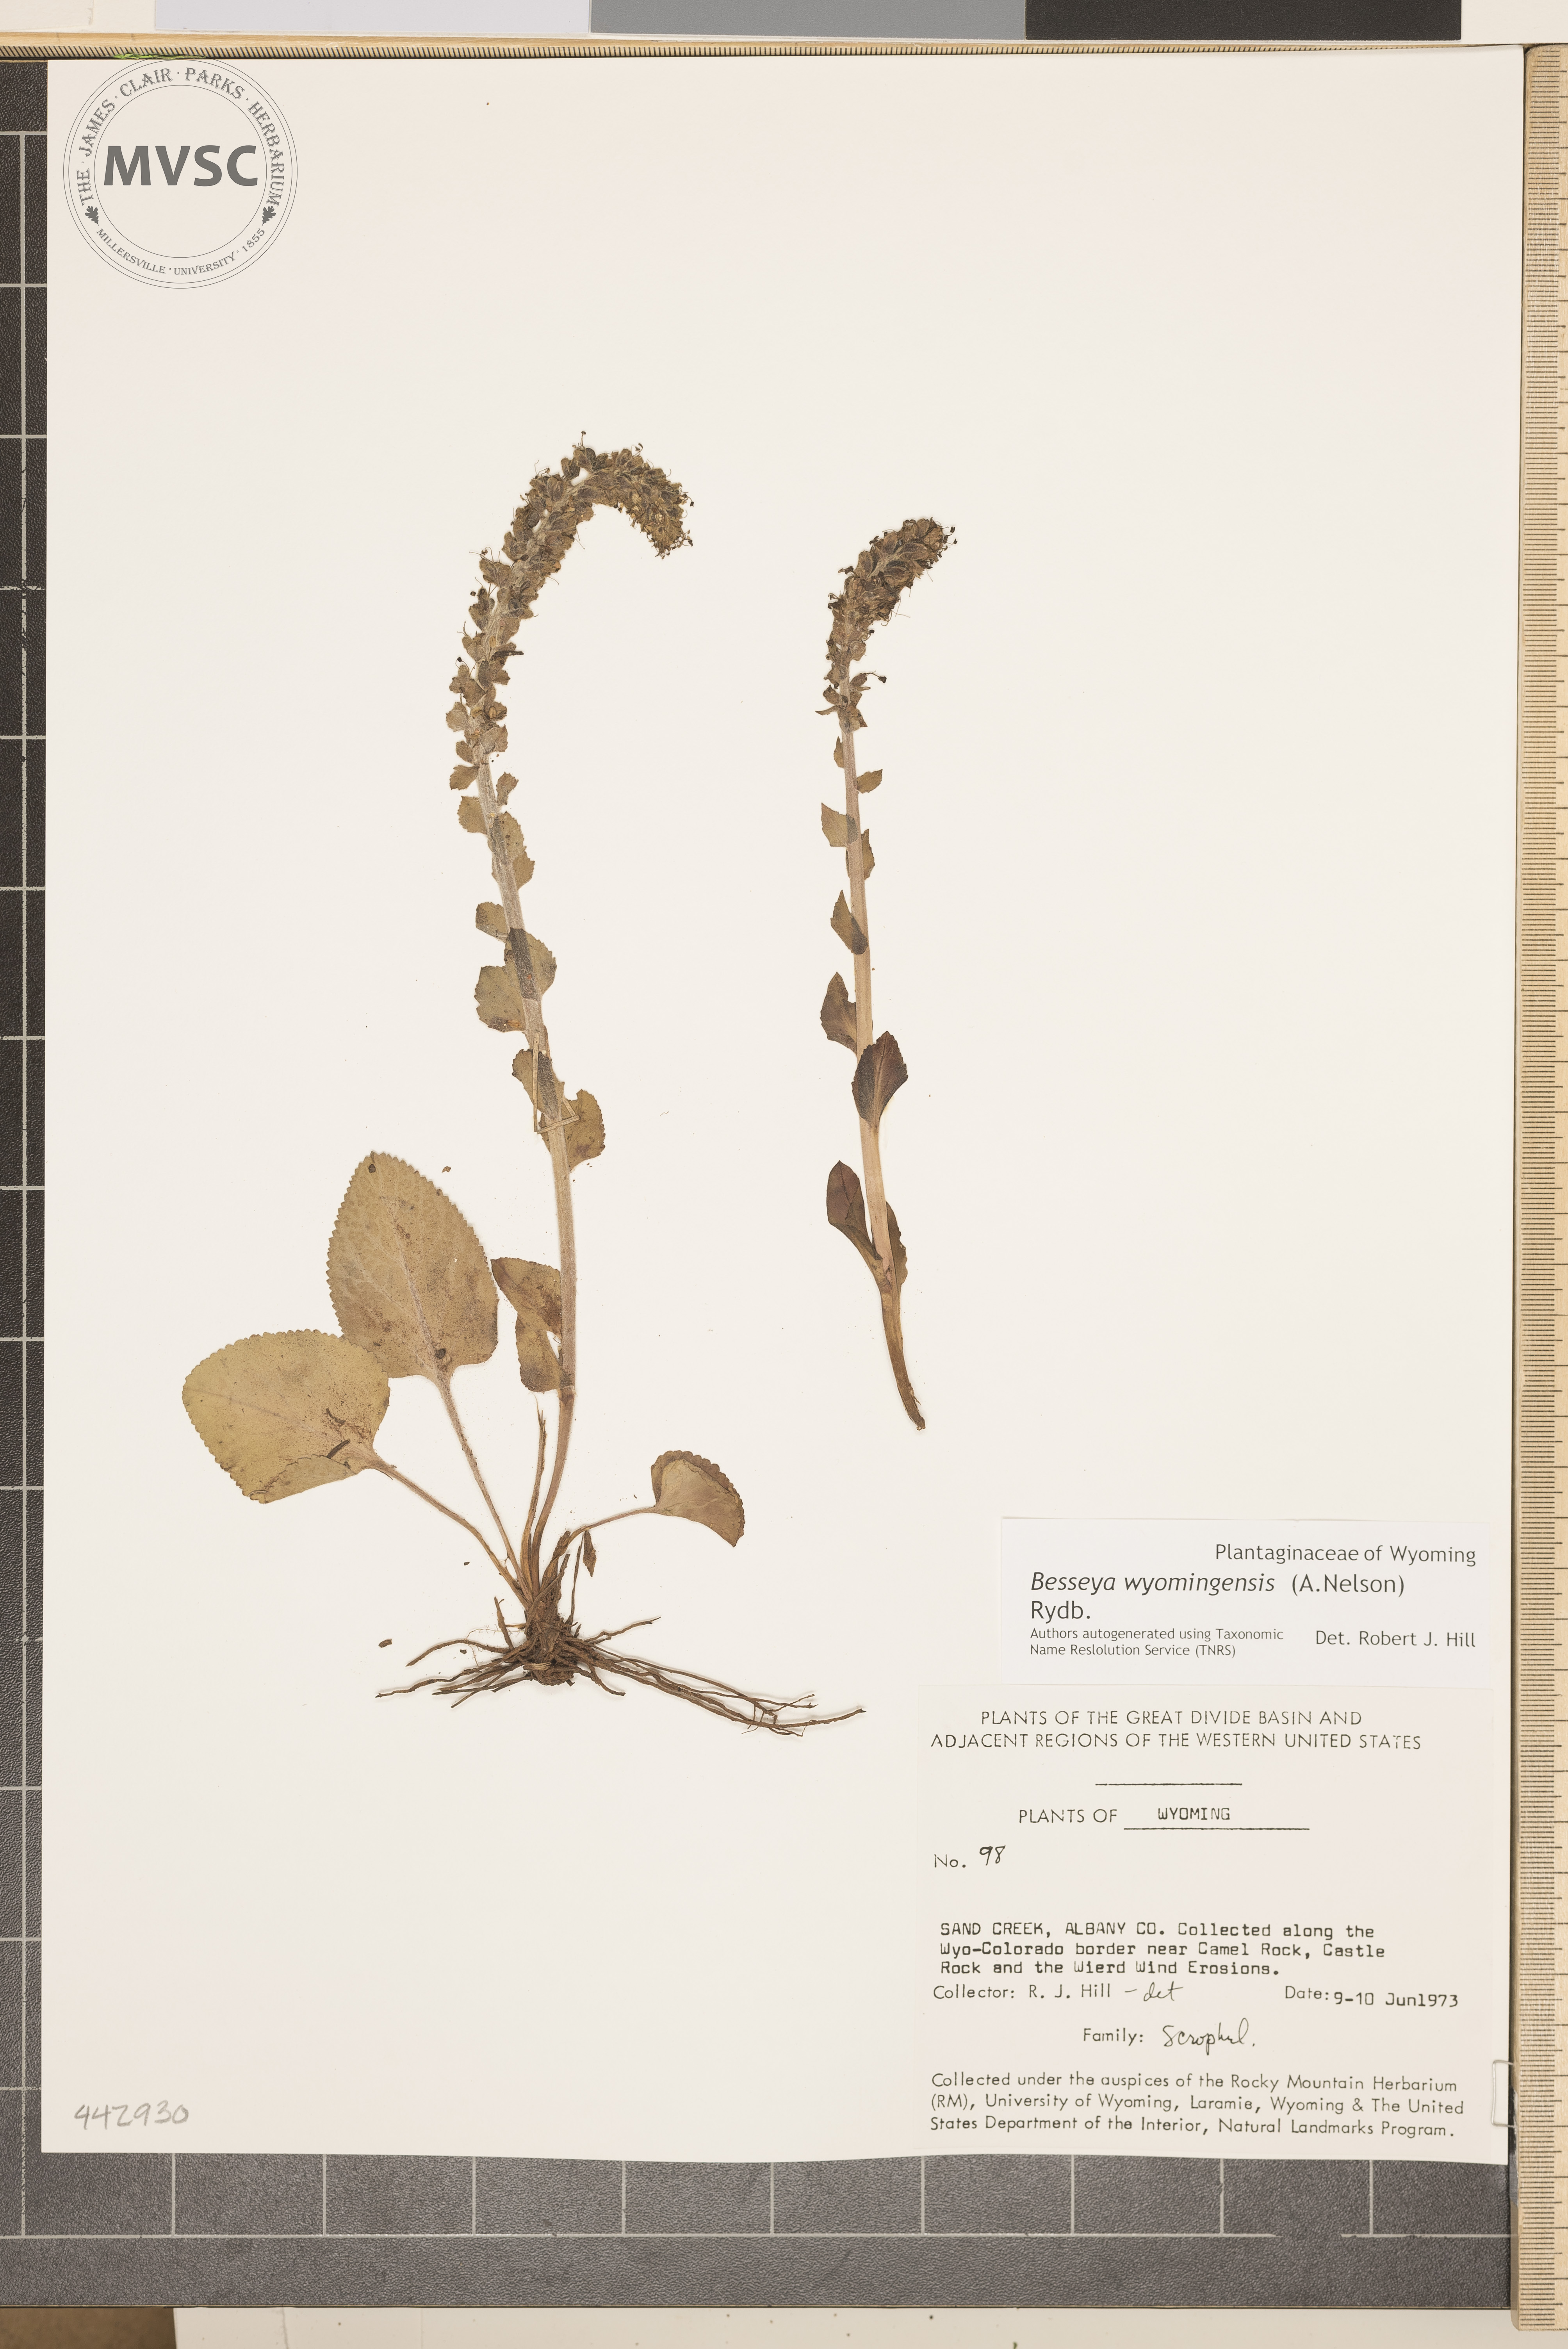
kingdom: Plantae
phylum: Tracheophyta
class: Magnoliopsida
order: Lamiales
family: Plantaginaceae
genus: Synthyris
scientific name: Synthyris wyomingensis
